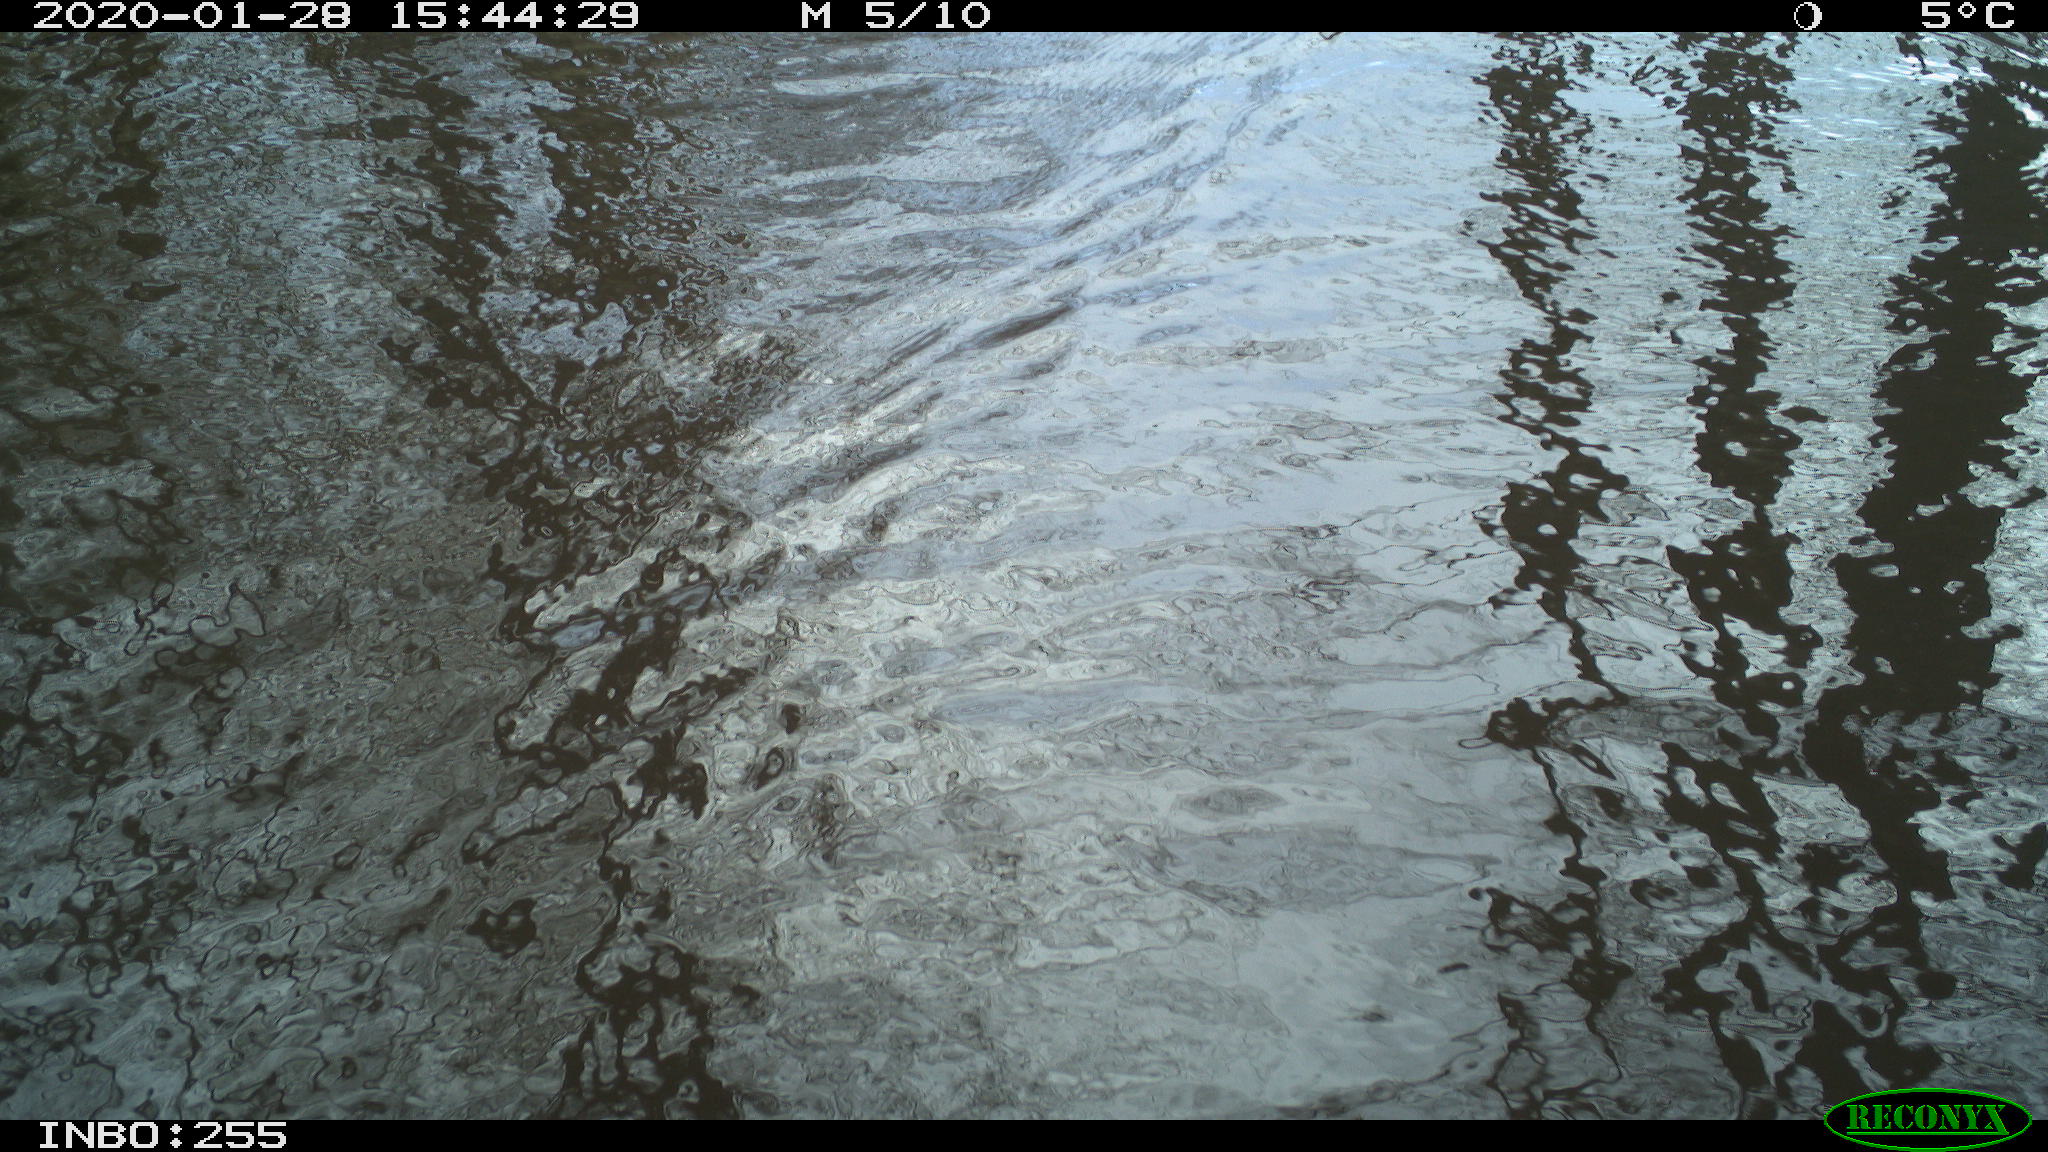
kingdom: Animalia
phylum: Chordata
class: Aves
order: Gruiformes
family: Rallidae
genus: Fulica
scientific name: Fulica atra
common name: Eurasian coot
